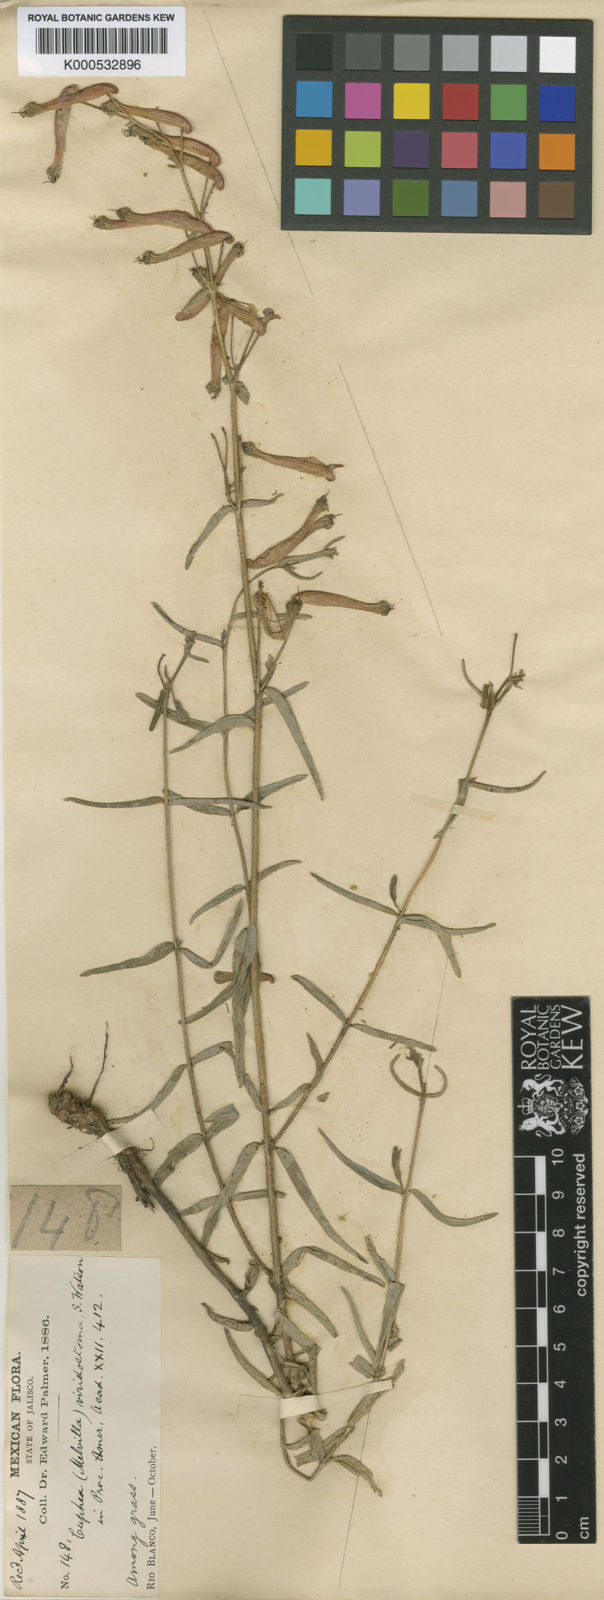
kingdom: Plantae
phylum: Tracheophyta
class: Magnoliopsida
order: Myrtales
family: Lythraceae
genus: Cuphea
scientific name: Cuphea jorullensis
